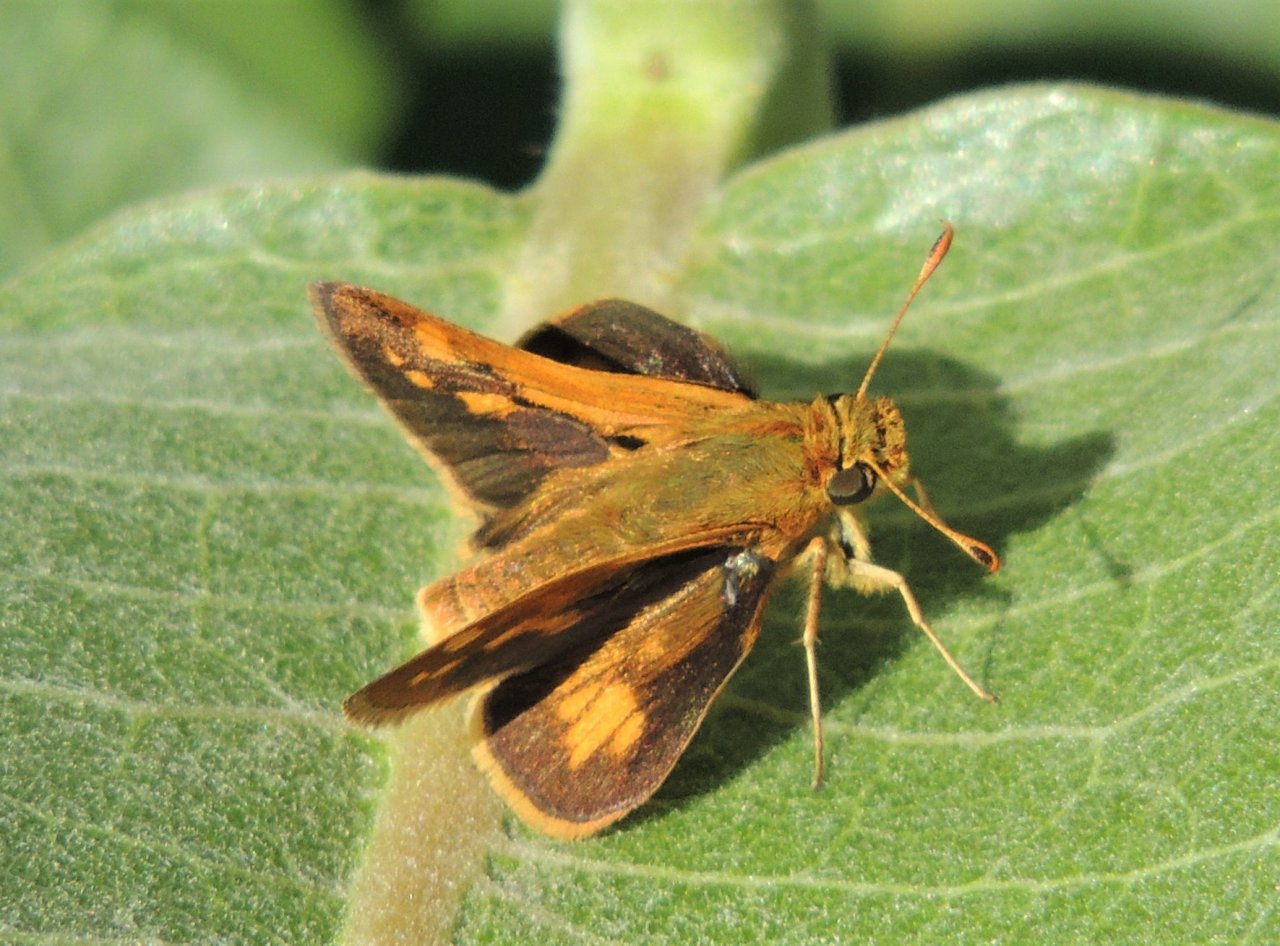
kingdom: Animalia
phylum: Arthropoda
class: Insecta
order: Lepidoptera
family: Hesperiidae
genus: Polites
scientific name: Polites coras
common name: Peck's Skipper
